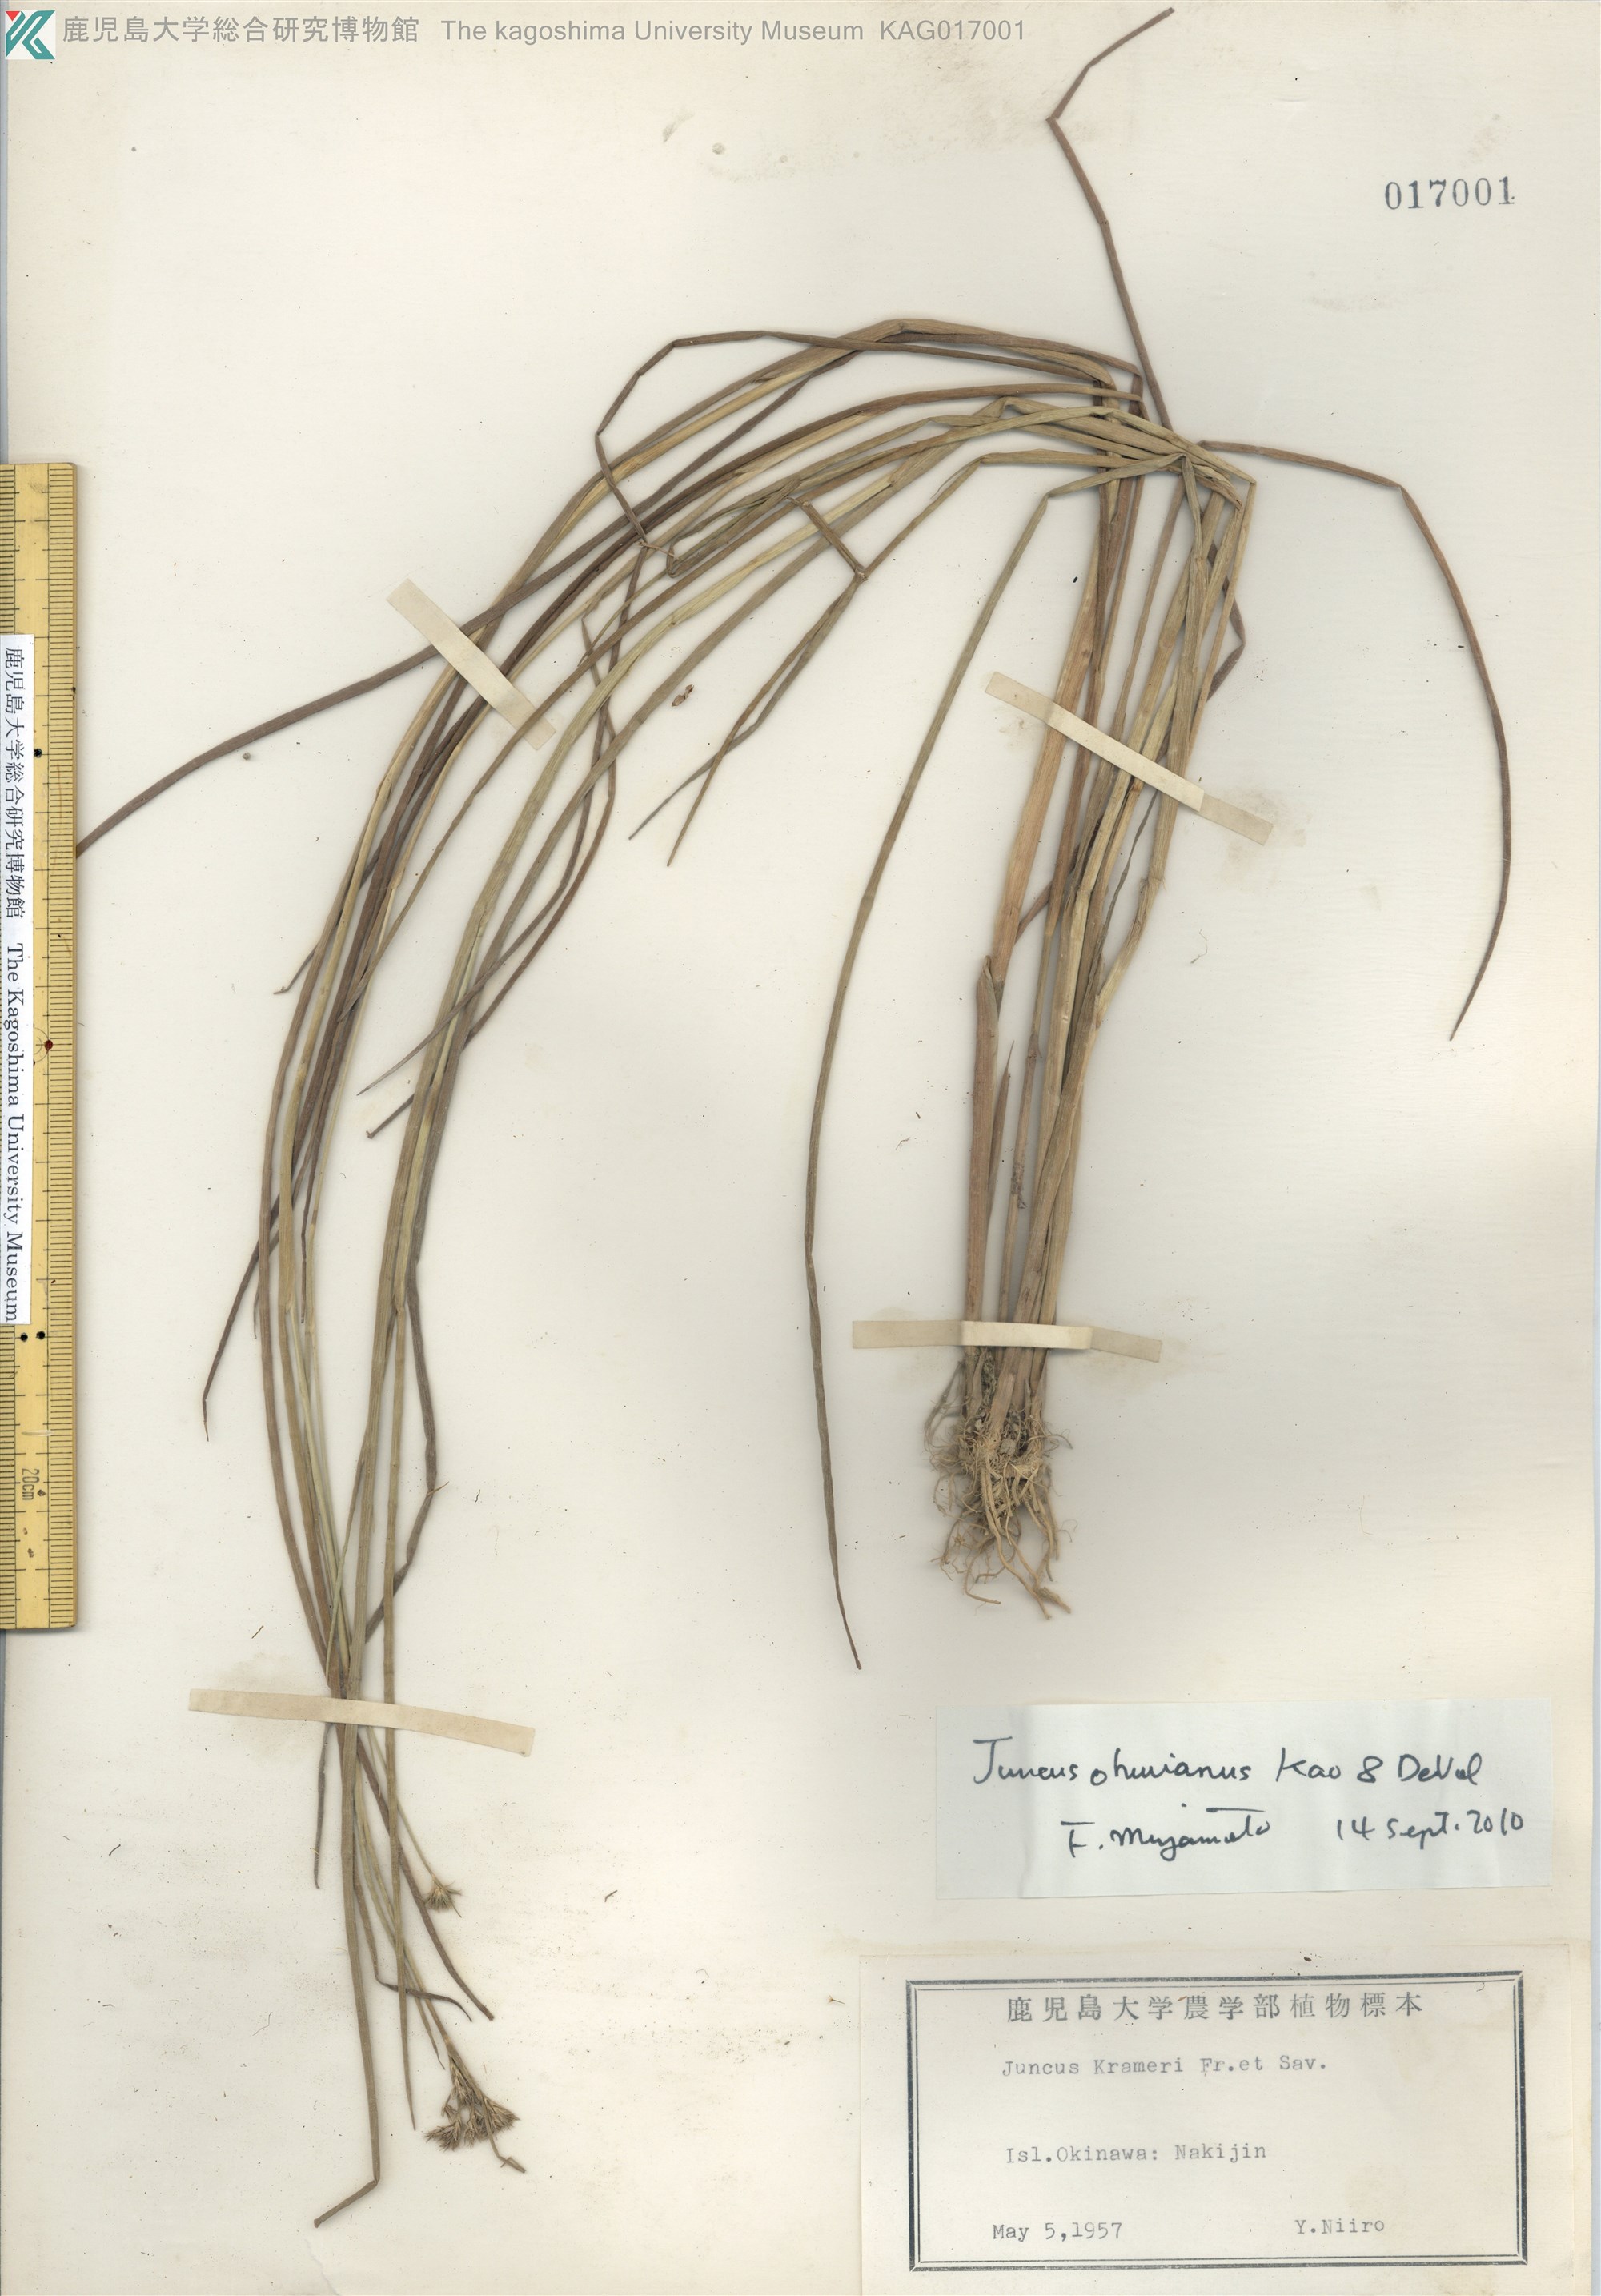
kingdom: Plantae
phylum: Tracheophyta
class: Liliopsida
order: Poales
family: Juncaceae
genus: Juncus
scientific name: Juncus wallichianus
